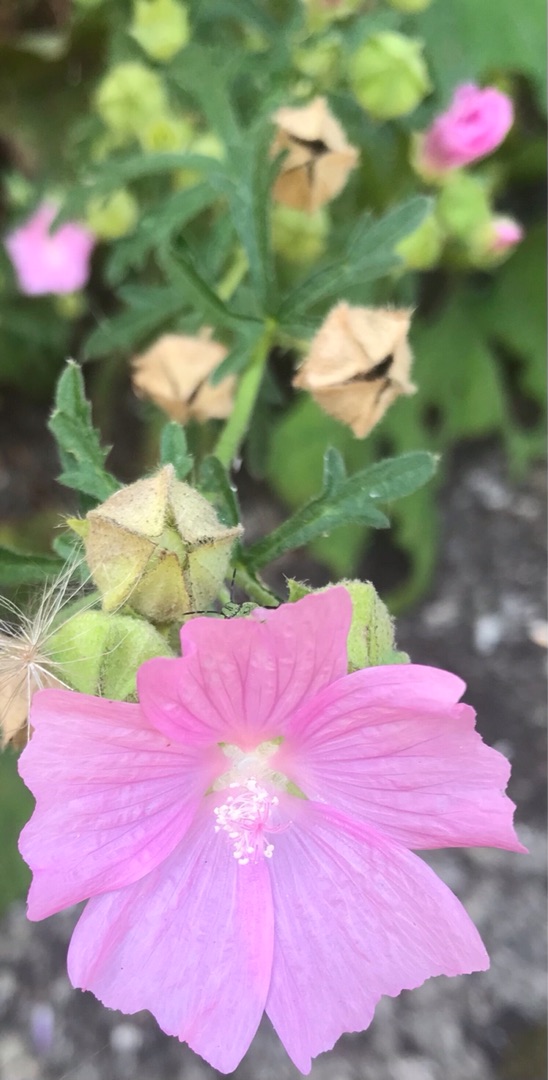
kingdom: Plantae
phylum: Tracheophyta
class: Magnoliopsida
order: Malvales
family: Malvaceae
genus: Malva
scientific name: Malva alcea
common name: Rosen-katost
